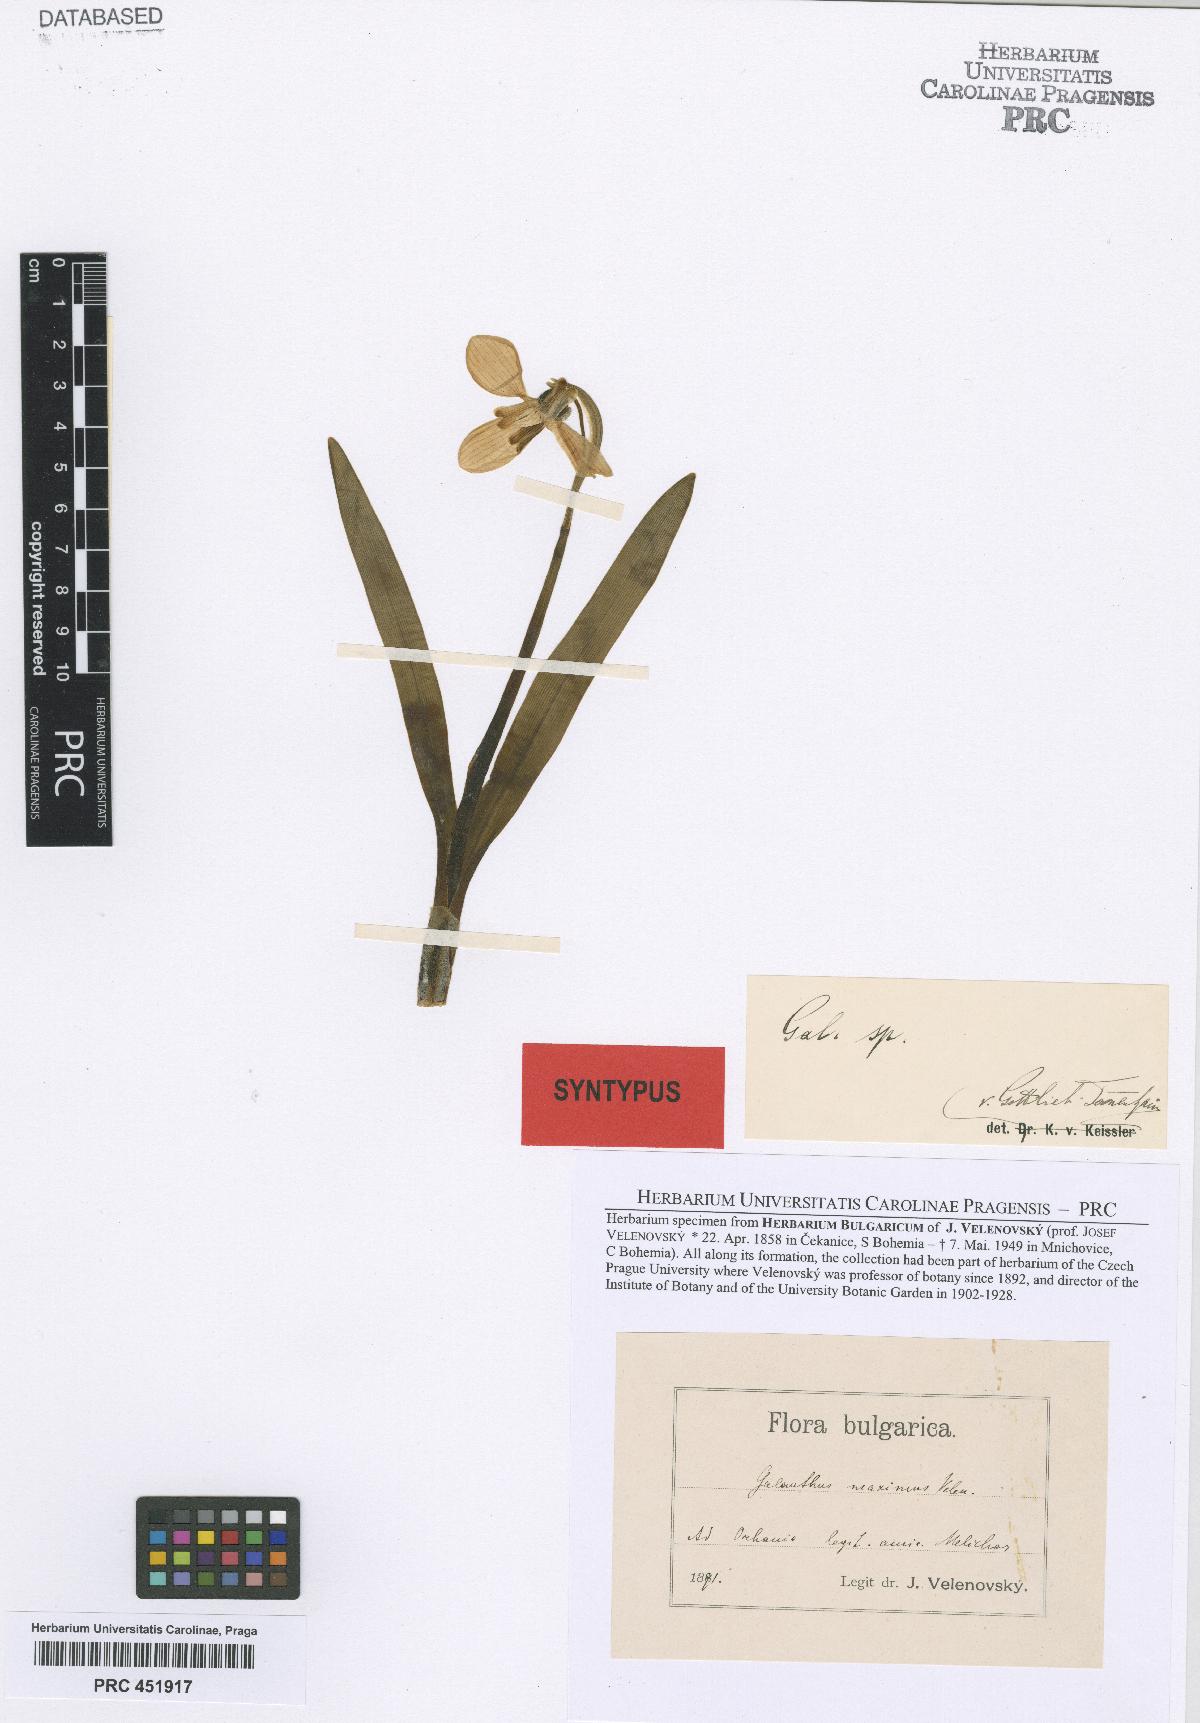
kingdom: Plantae
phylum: Tracheophyta
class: Liliopsida
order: Asparagales
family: Amaryllidaceae
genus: Galanthus
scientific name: Galanthus elwesii
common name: Greater snowdrop
